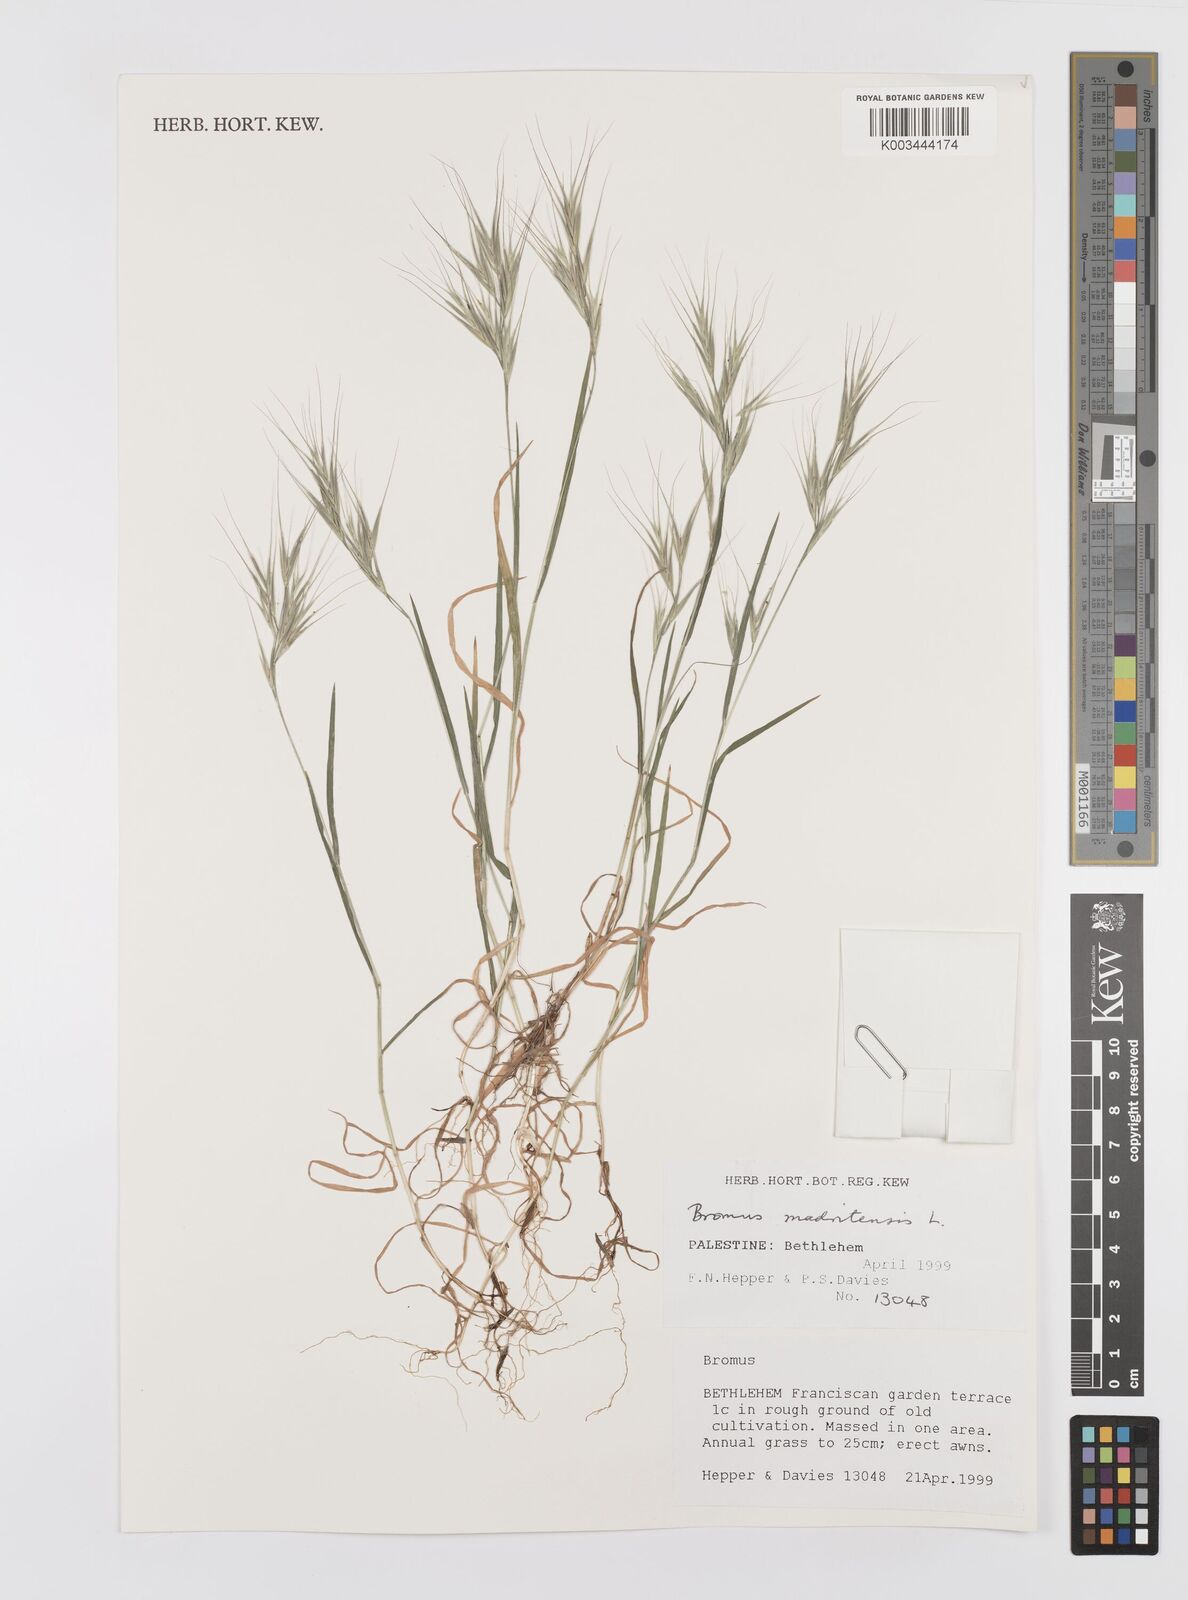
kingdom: Plantae
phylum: Tracheophyta
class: Liliopsida
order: Poales
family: Poaceae
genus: Bromus
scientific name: Bromus madritensis
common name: Compact brome
